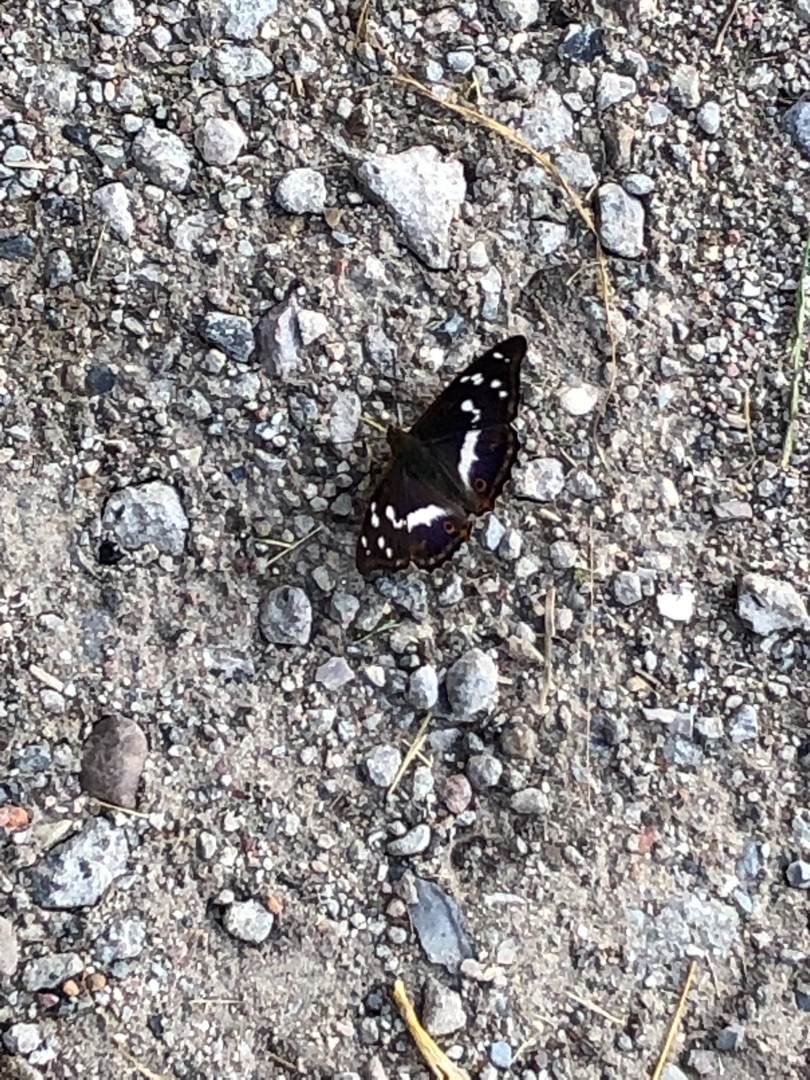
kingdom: Animalia
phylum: Arthropoda
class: Insecta
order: Lepidoptera
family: Nymphalidae
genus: Apatura
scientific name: Apatura iris
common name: Iris
